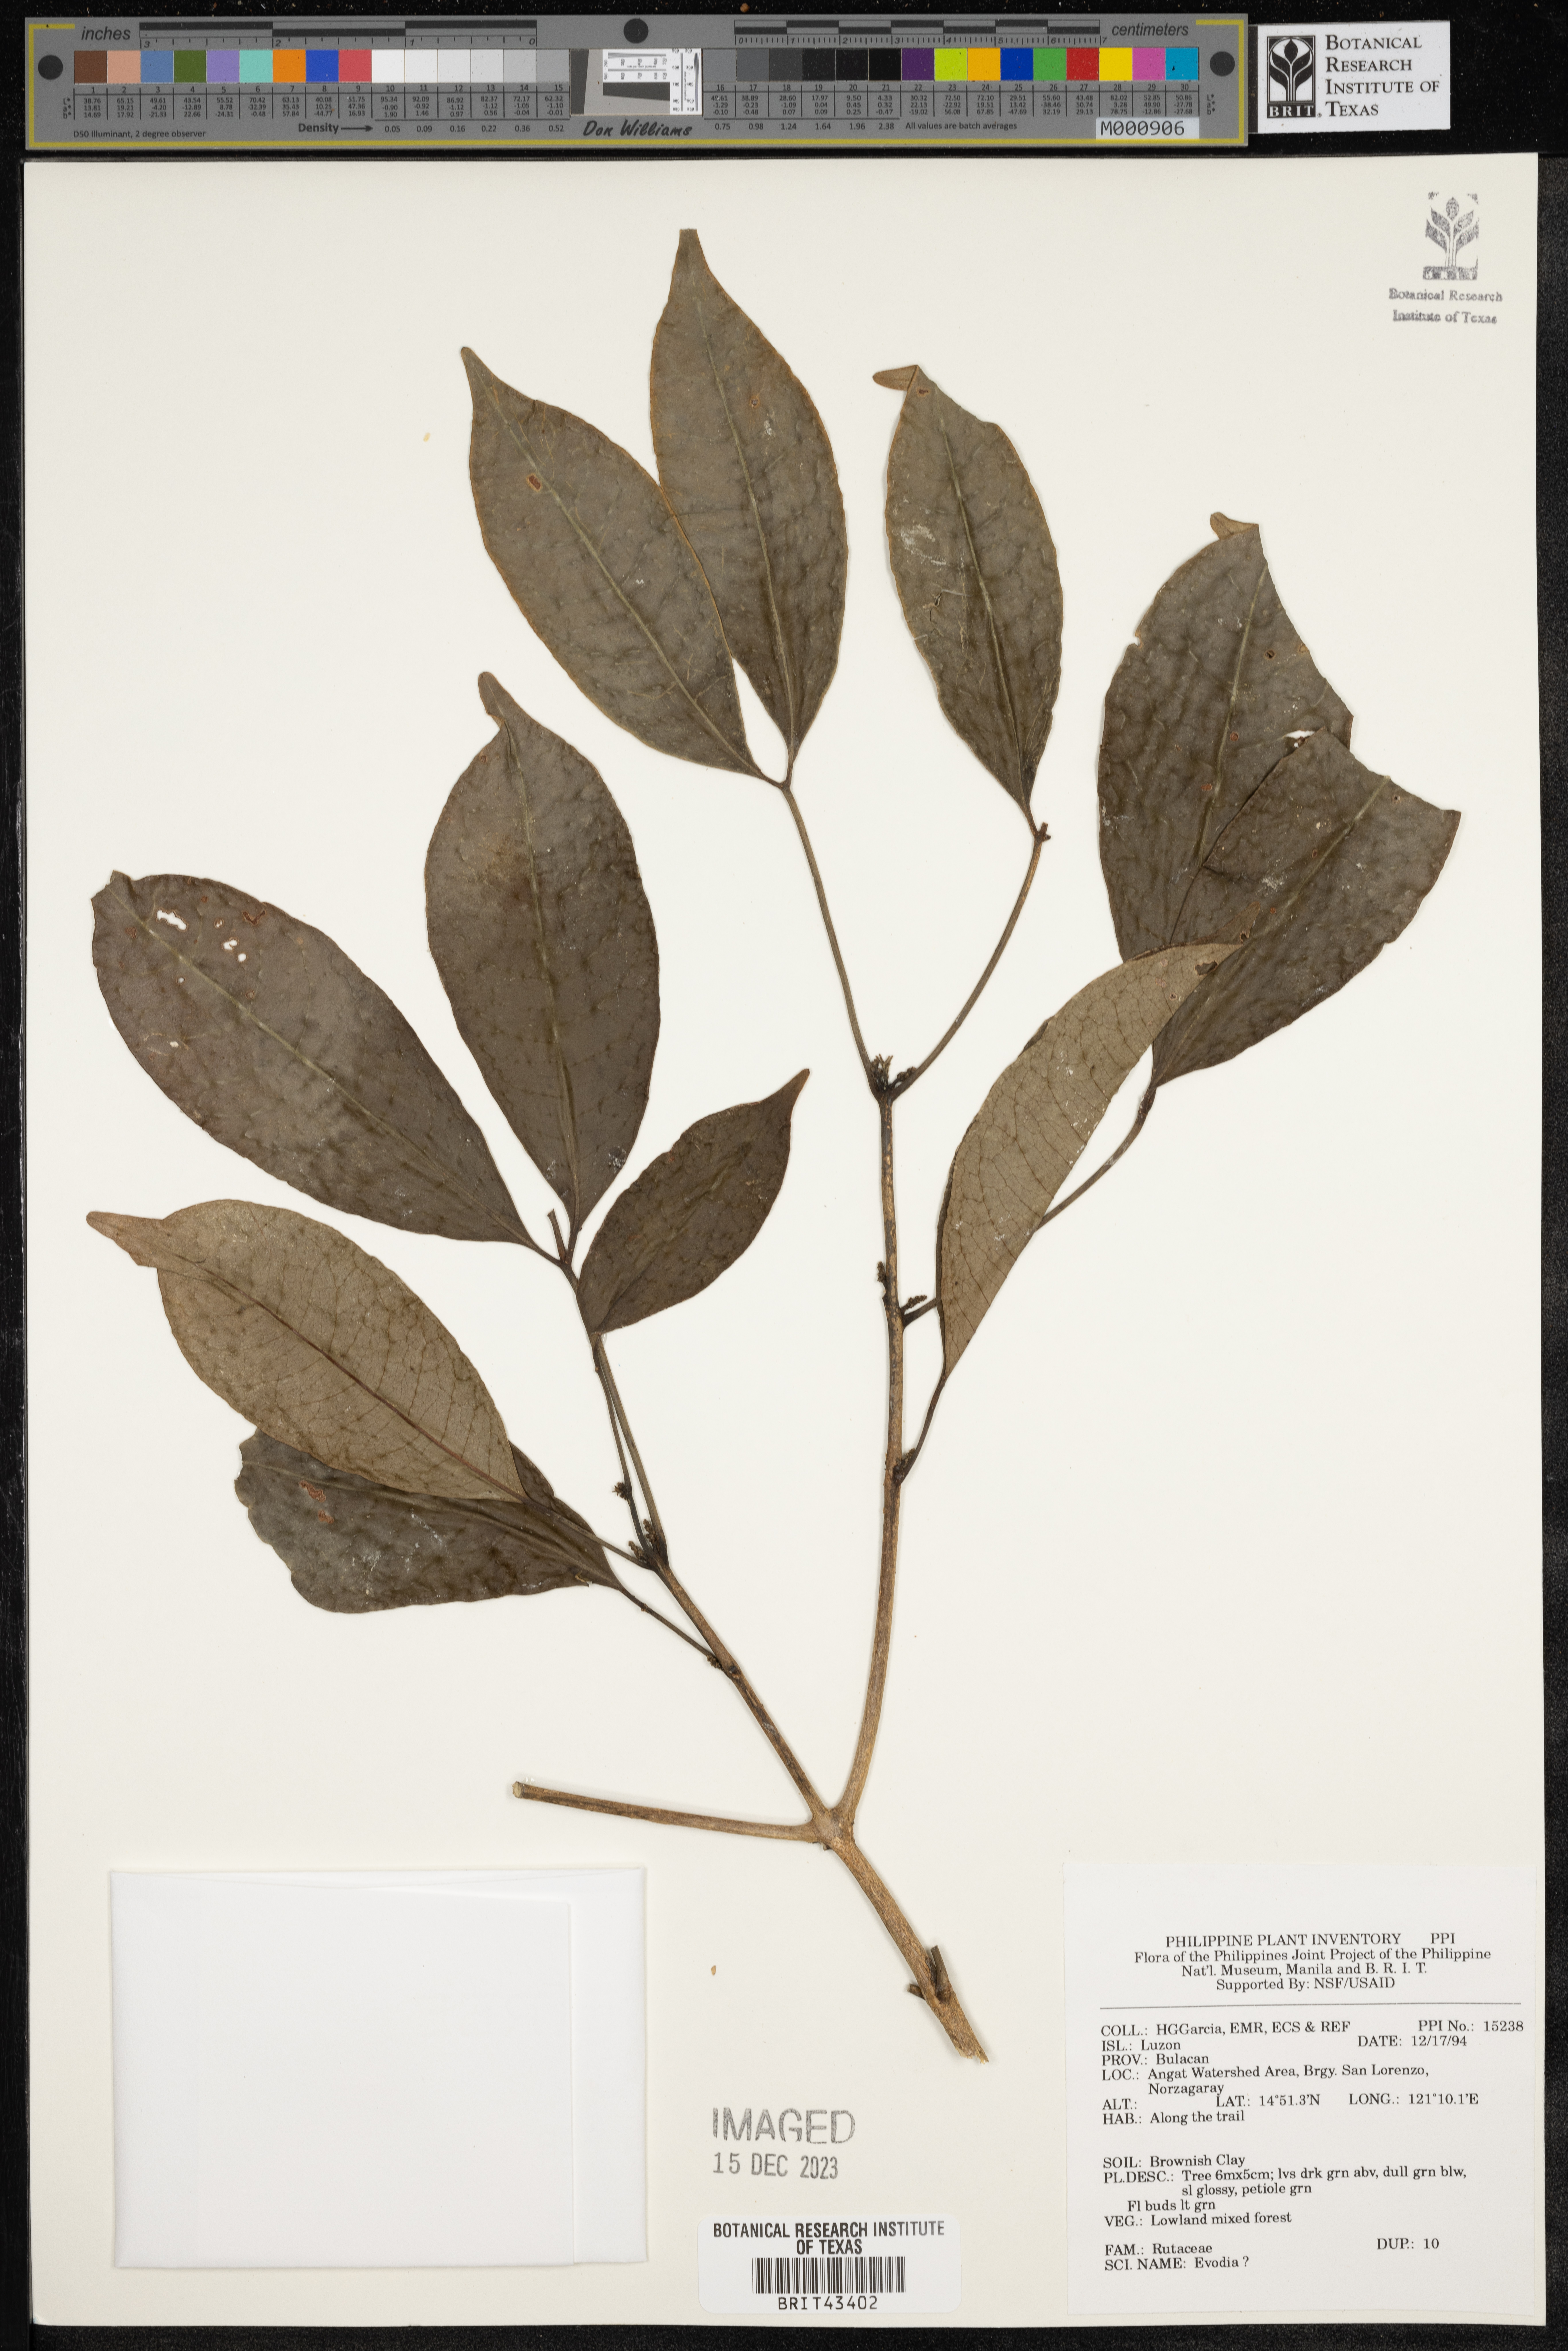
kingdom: Plantae
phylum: Tracheophyta
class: Magnoliopsida
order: Sapindales
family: Rutaceae
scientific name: Rutaceae
